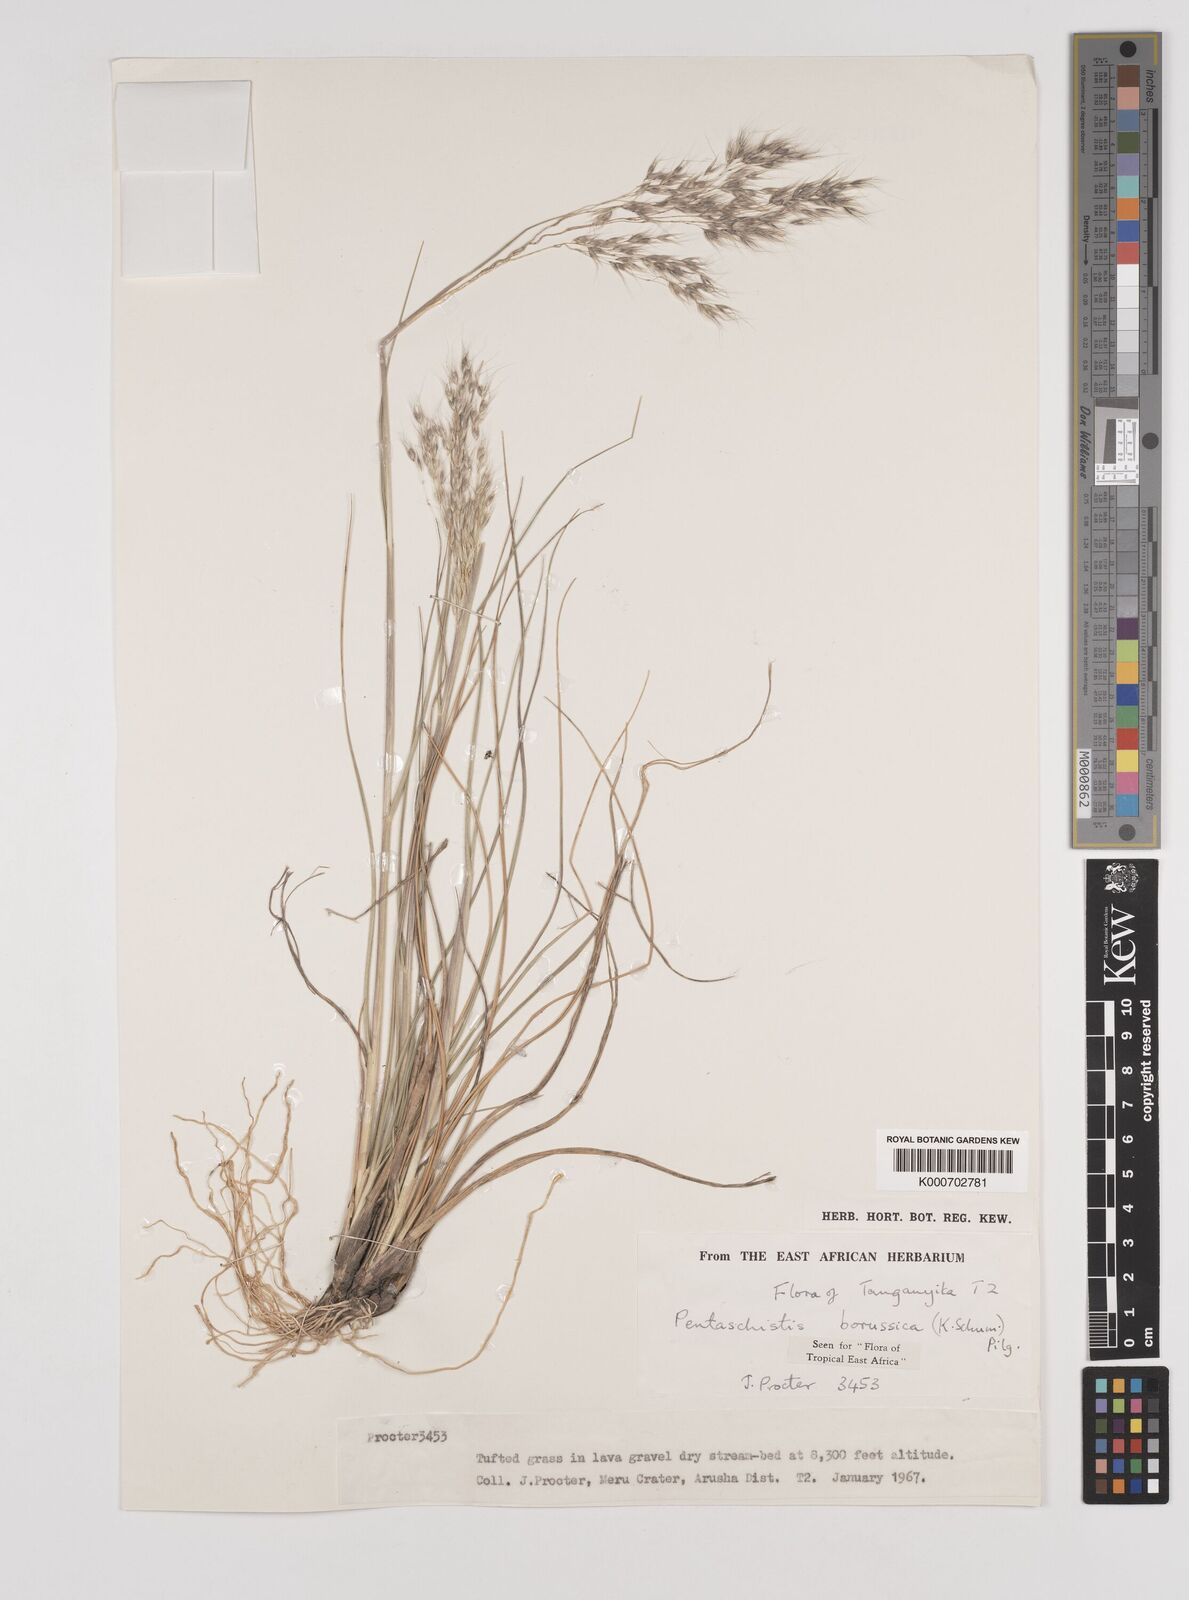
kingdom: Plantae
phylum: Tracheophyta
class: Liliopsida
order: Poales
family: Poaceae
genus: Pentameris
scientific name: Pentameris borussica
